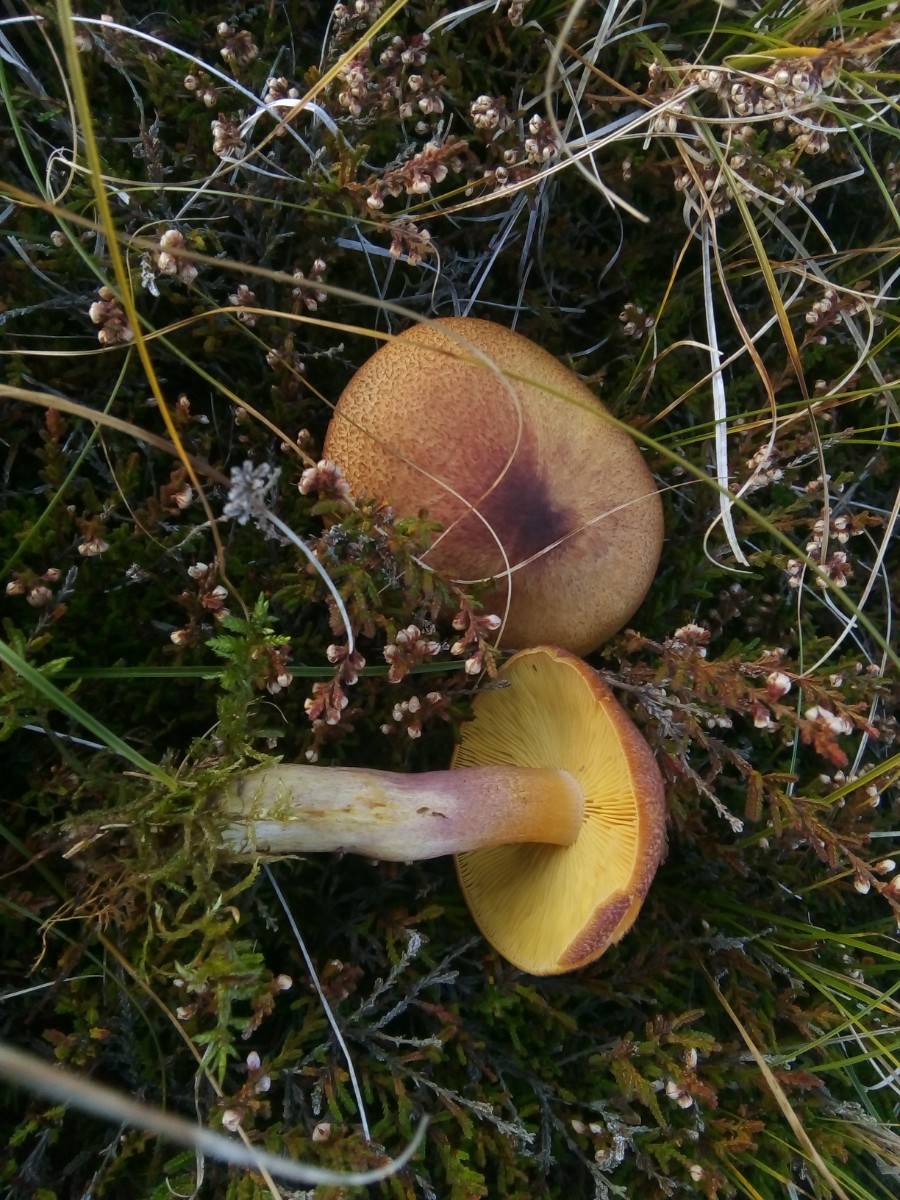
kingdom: Fungi
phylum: Basidiomycota
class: Agaricomycetes
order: Agaricales
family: Tricholomataceae
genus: Tricholomopsis
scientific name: Tricholomopsis rutilans
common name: purpur-væbnerhat
